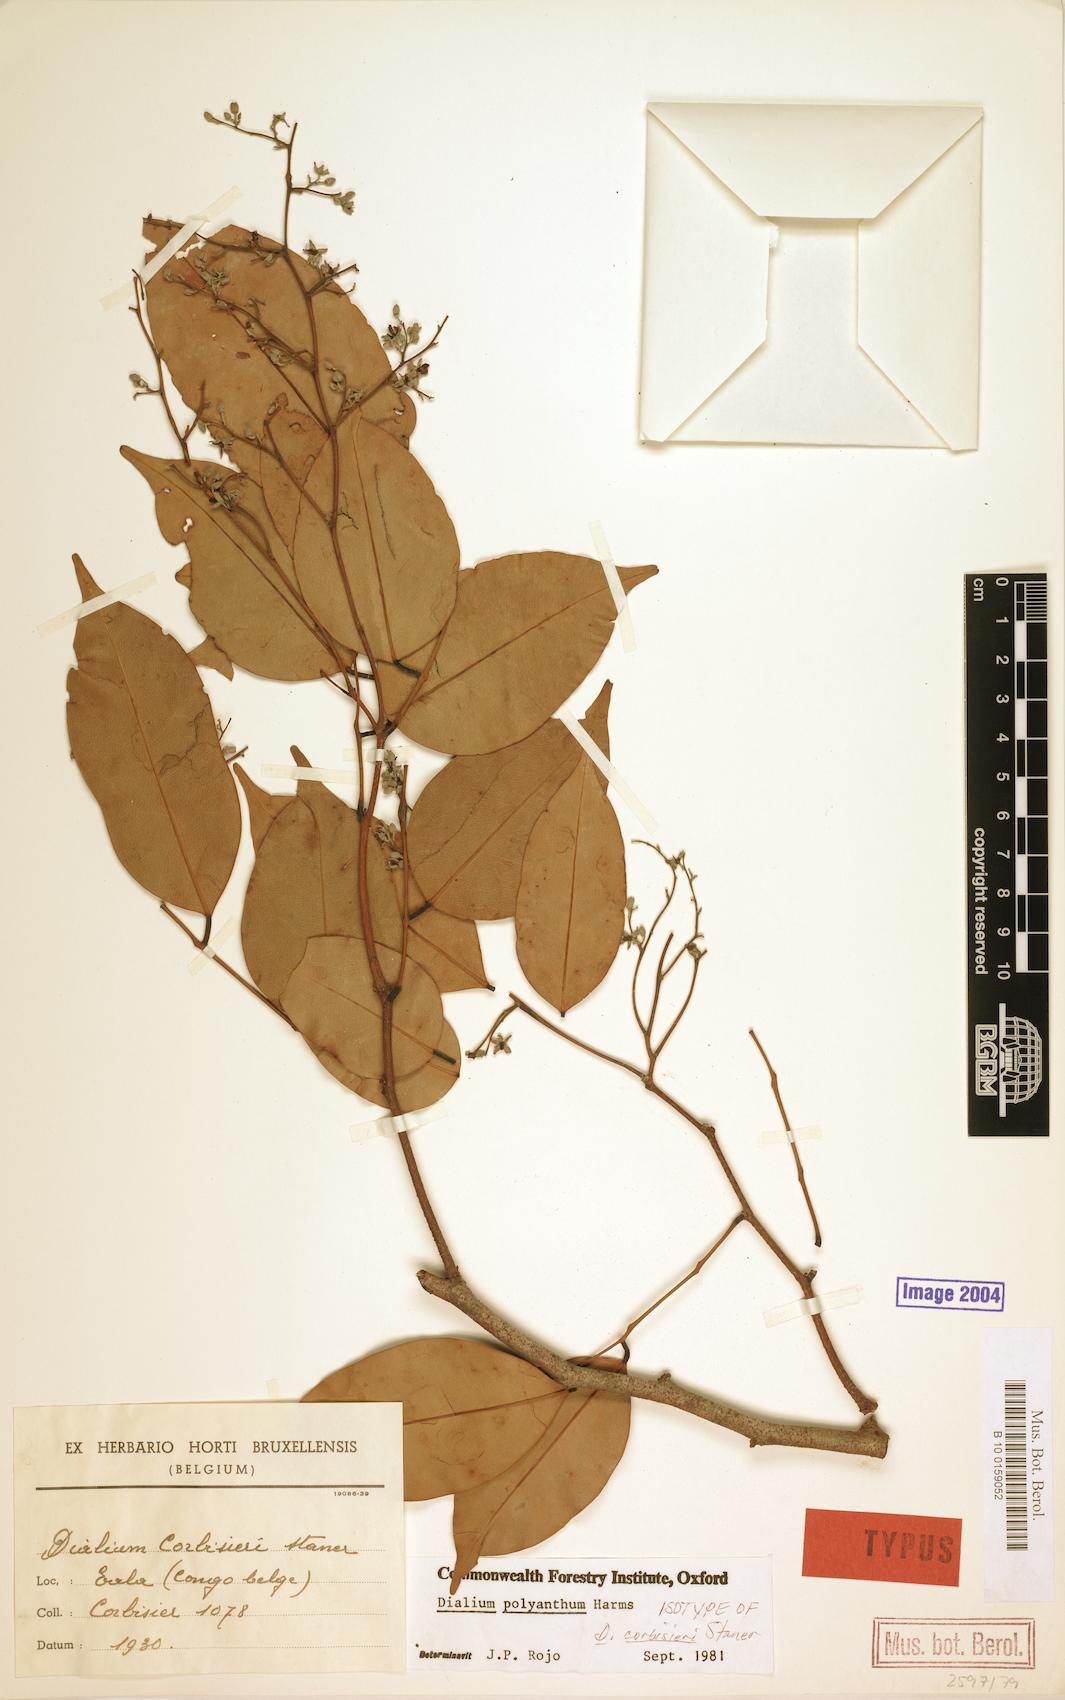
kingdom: Plantae
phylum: Tracheophyta
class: Magnoliopsida
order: Fabales
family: Fabaceae
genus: Dialium
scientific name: Dialium polyanthum
